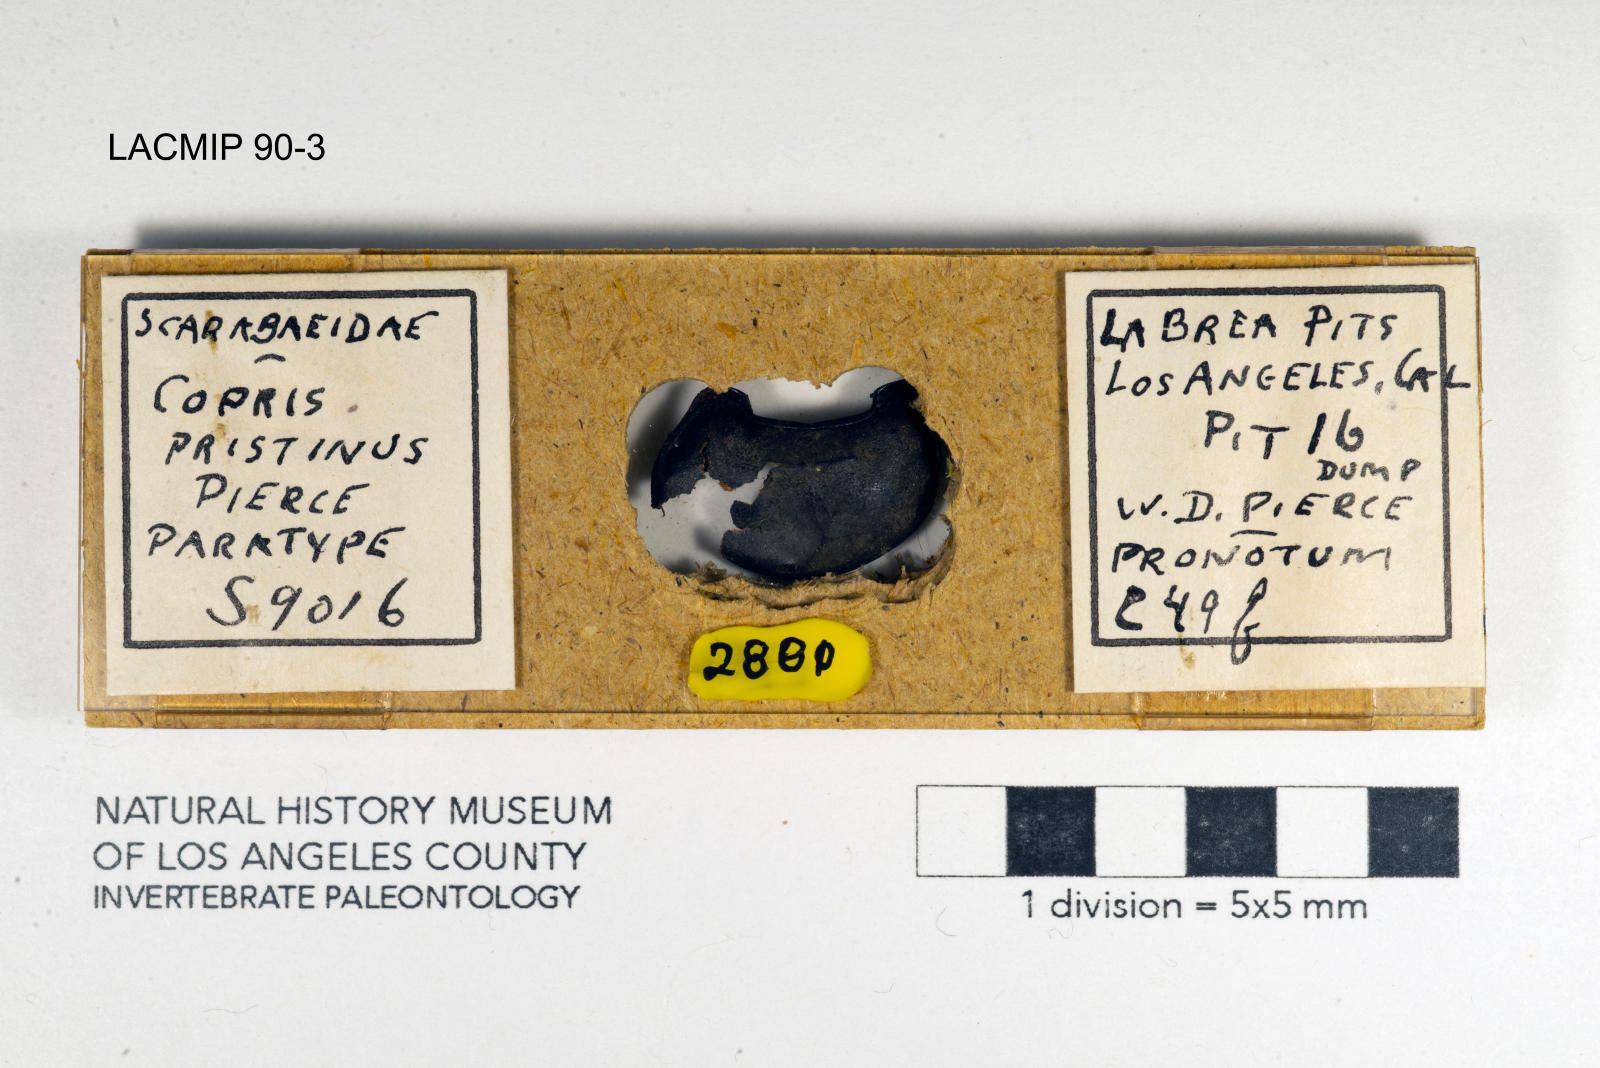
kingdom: Animalia
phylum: Arthropoda
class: Insecta
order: Coleoptera
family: Scarabaeidae
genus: Copris
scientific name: Copris pristinus
